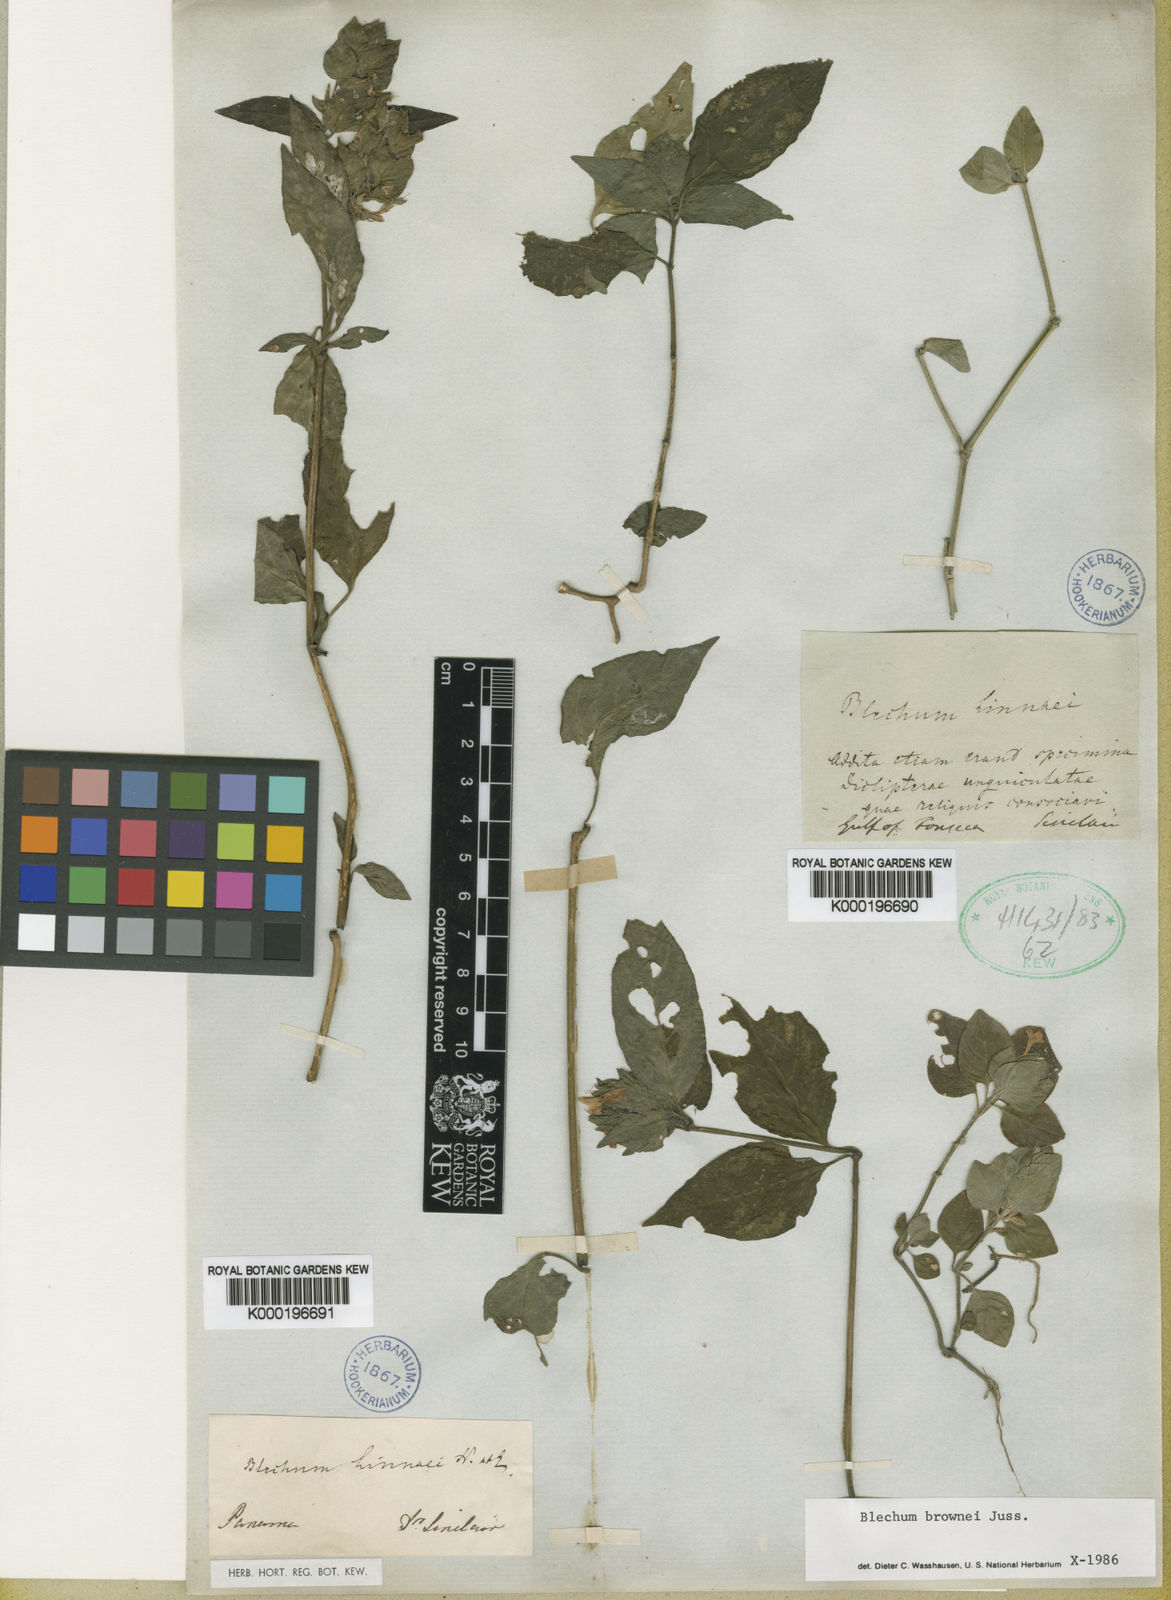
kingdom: Plantae
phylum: Tracheophyta
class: Magnoliopsida
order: Lamiales
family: Acanthaceae
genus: Ruellia
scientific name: Ruellia blechum
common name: Browne's blechum
